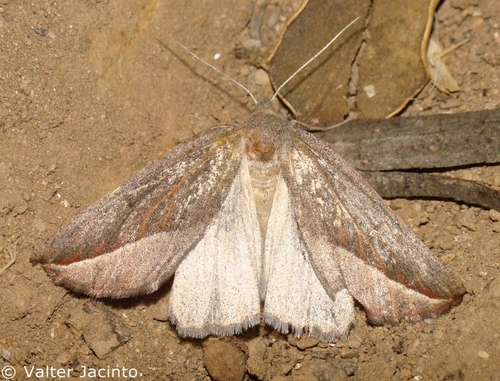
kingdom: Animalia
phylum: Arthropoda
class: Insecta
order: Lepidoptera
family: Geometridae
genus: Compsoptera
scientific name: Compsoptera opacaria
